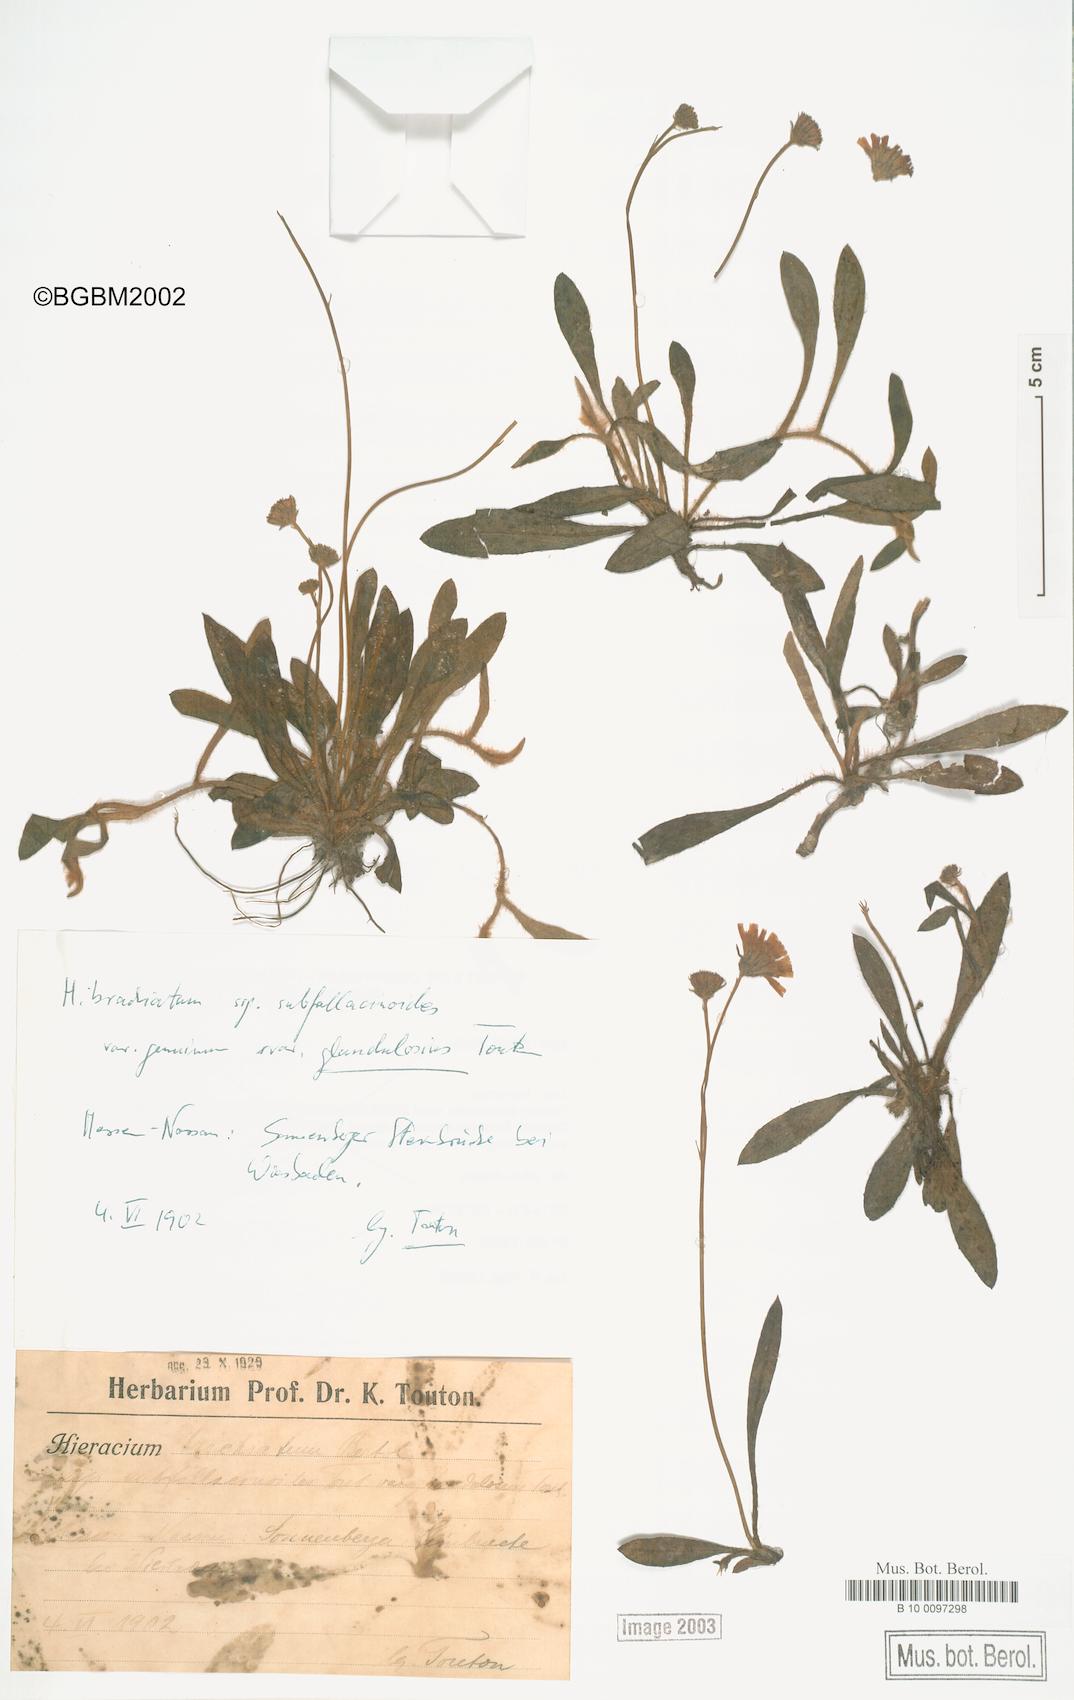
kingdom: Plantae
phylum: Tracheophyta
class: Magnoliopsida
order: Asterales
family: Asteraceae
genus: Pilosella
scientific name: Pilosella acutifolia
